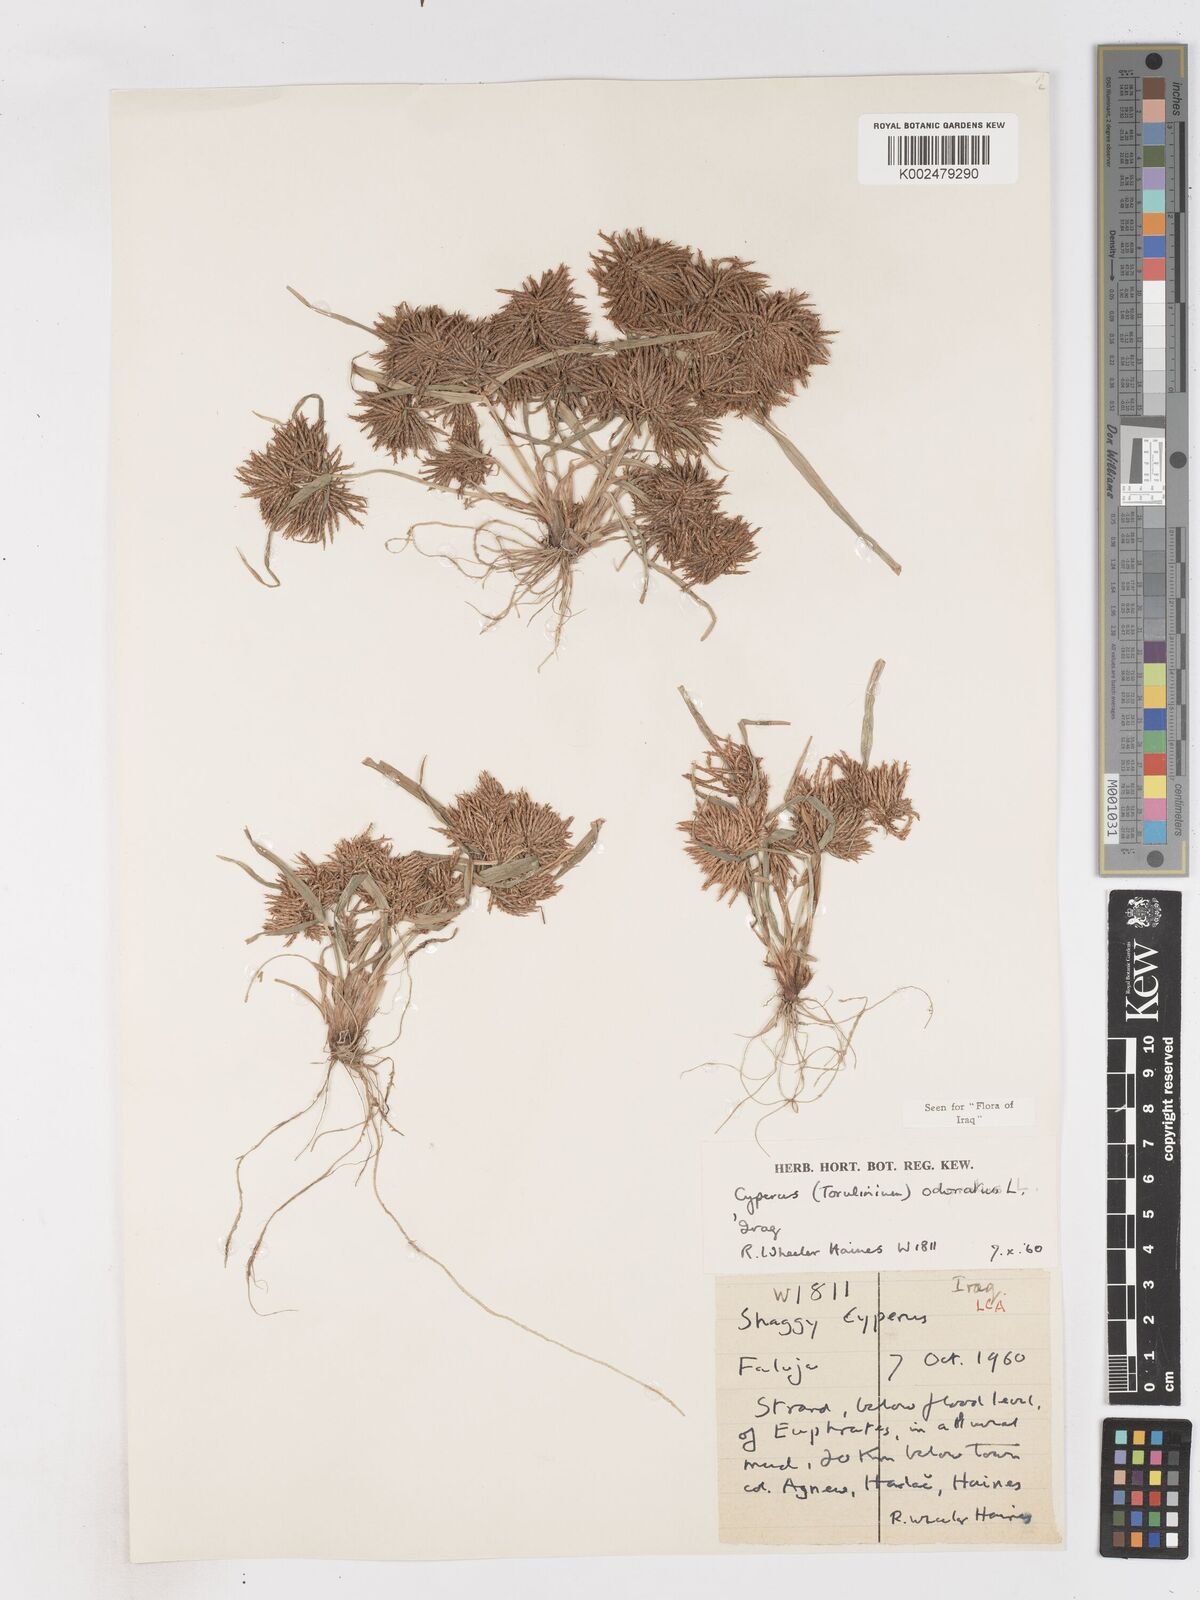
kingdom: Plantae
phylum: Tracheophyta
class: Liliopsida
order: Poales
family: Cyperaceae
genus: Cyperus
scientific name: Cyperus odoratus
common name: Fragrant flatsedge
